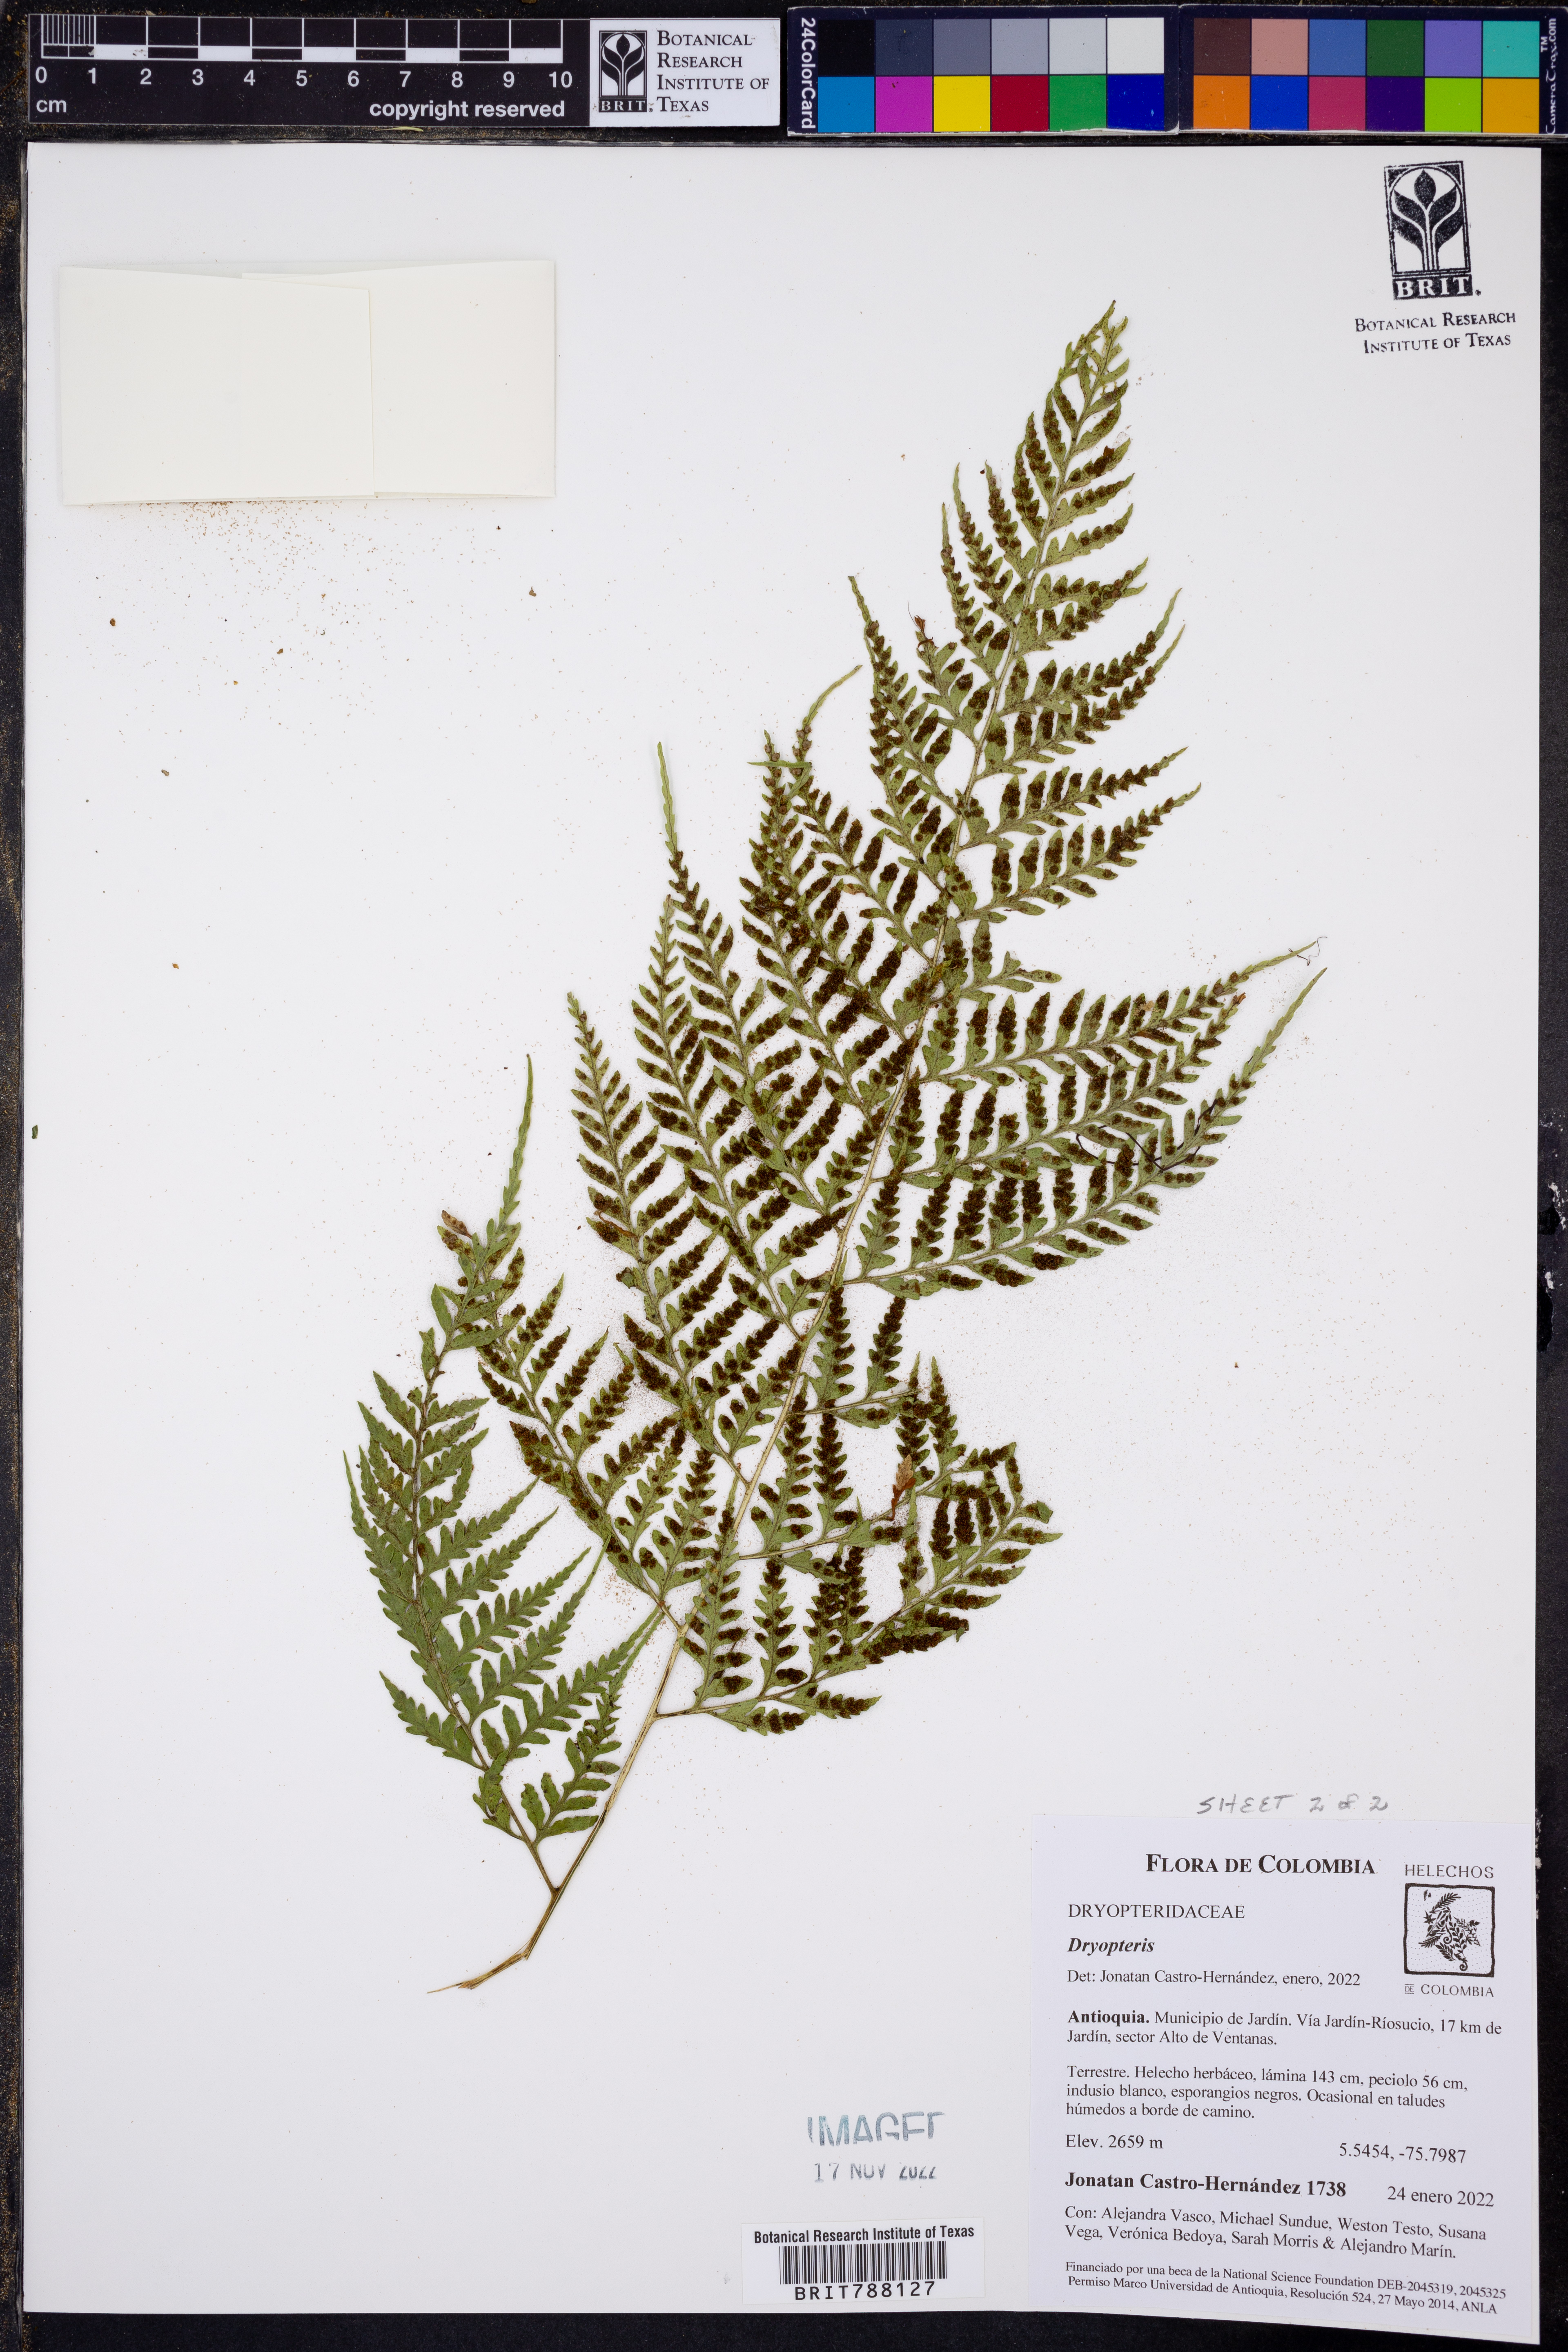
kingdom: Plantae
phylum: Tracheophyta
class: Polypodiopsida
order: Polypodiales
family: Dryopteridaceae
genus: Dryopteris
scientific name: Dryopteris flaccisquama
